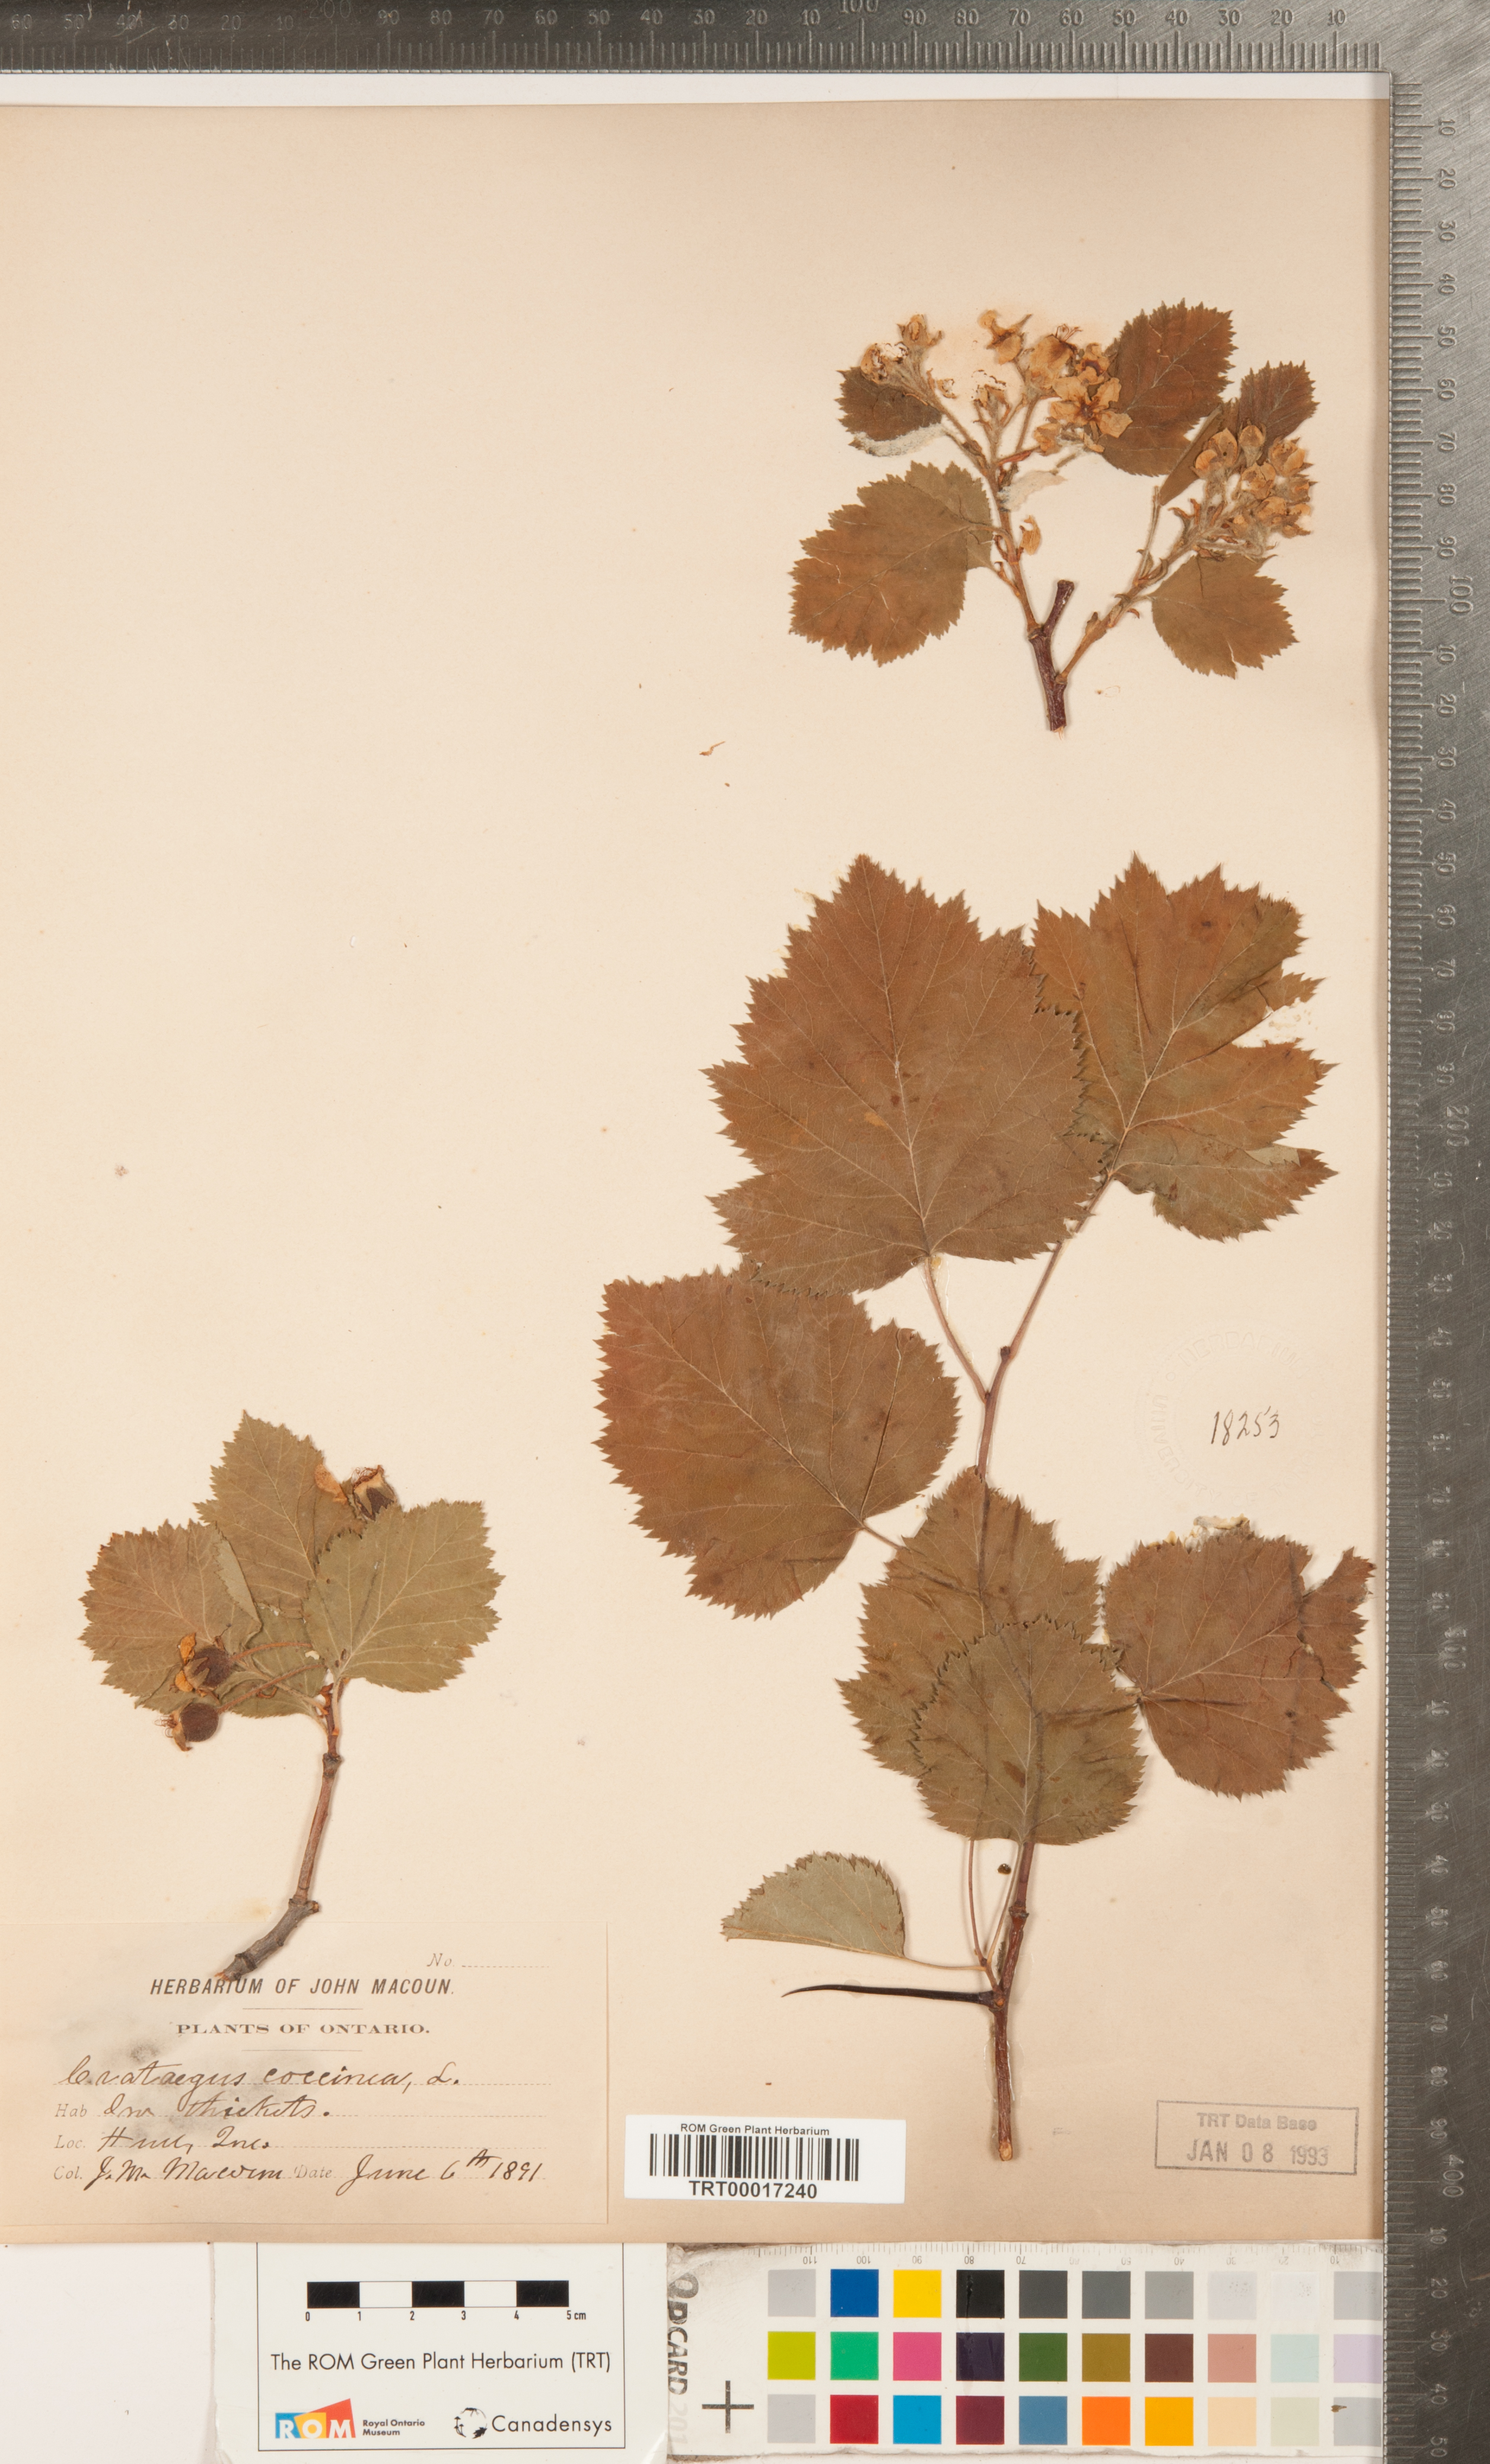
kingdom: Plantae
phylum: Tracheophyta
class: Magnoliopsida
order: Rosales
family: Rosaceae
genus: Crataegus
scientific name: Crataegus coccinea
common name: Scarlet hawthorn
